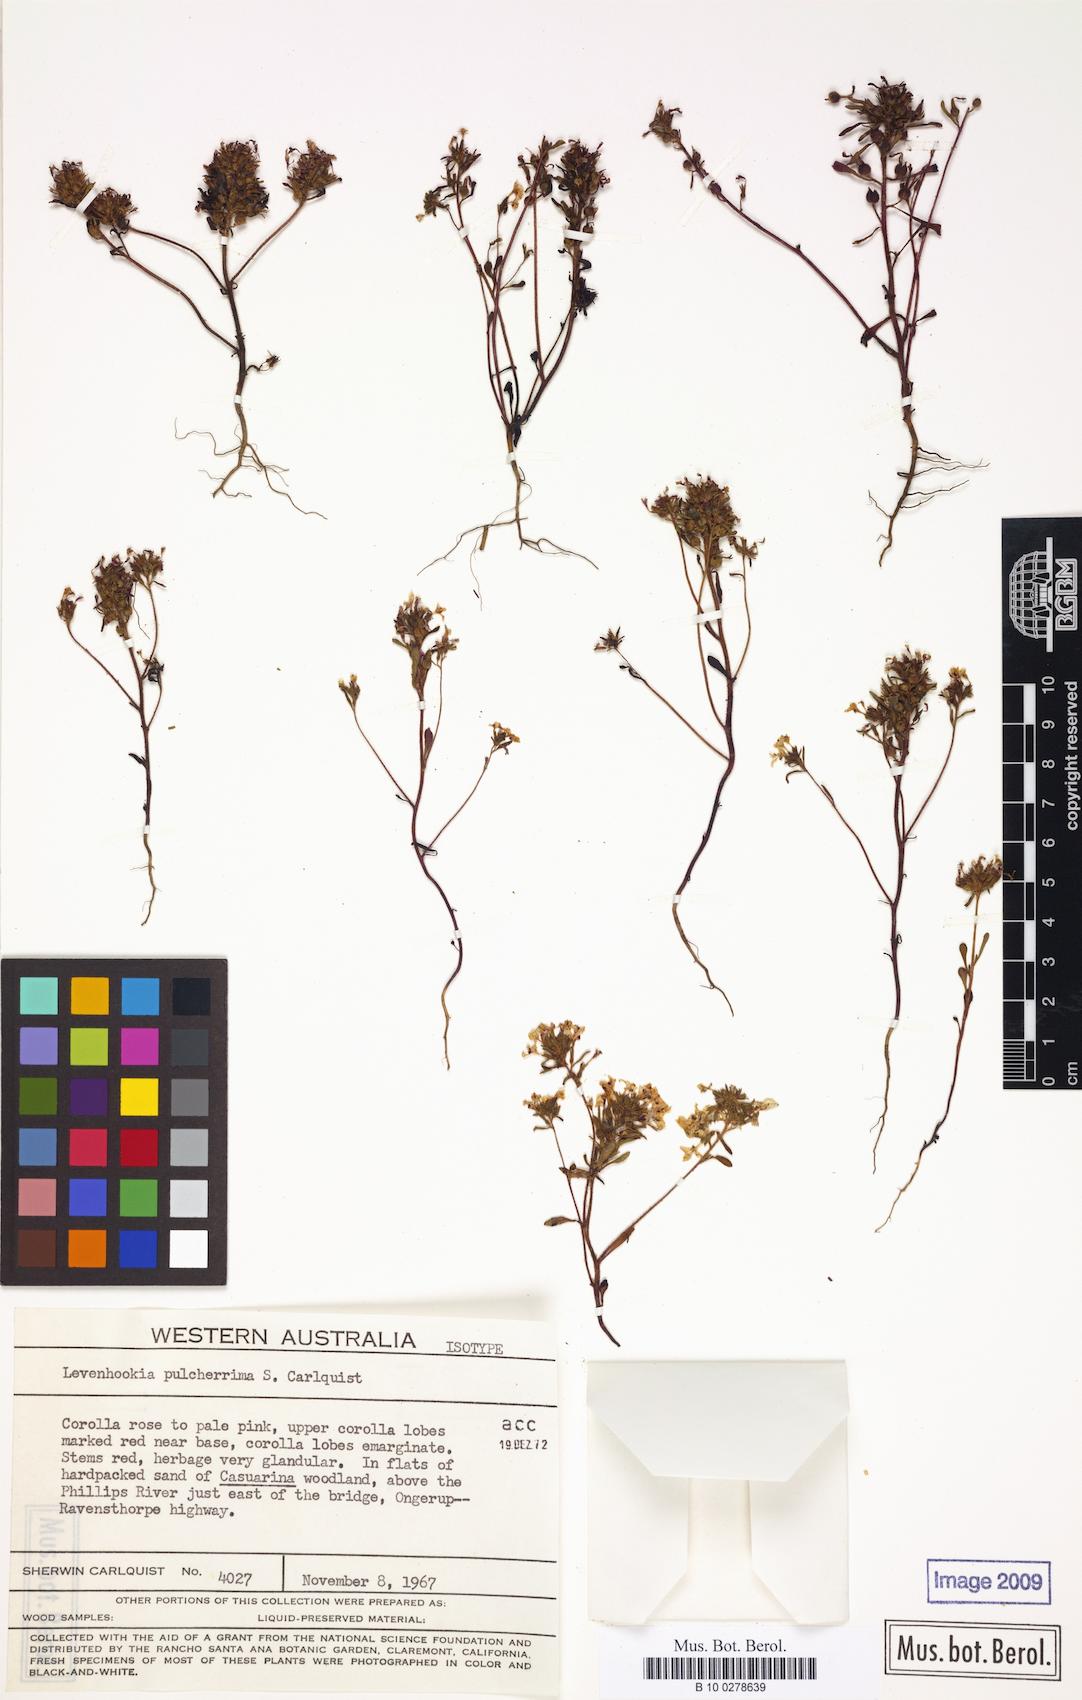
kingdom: Plantae
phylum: Tracheophyta
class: Magnoliopsida
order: Asterales
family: Stylidiaceae
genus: Levenhookia
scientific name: Levenhookia pulcherrima
